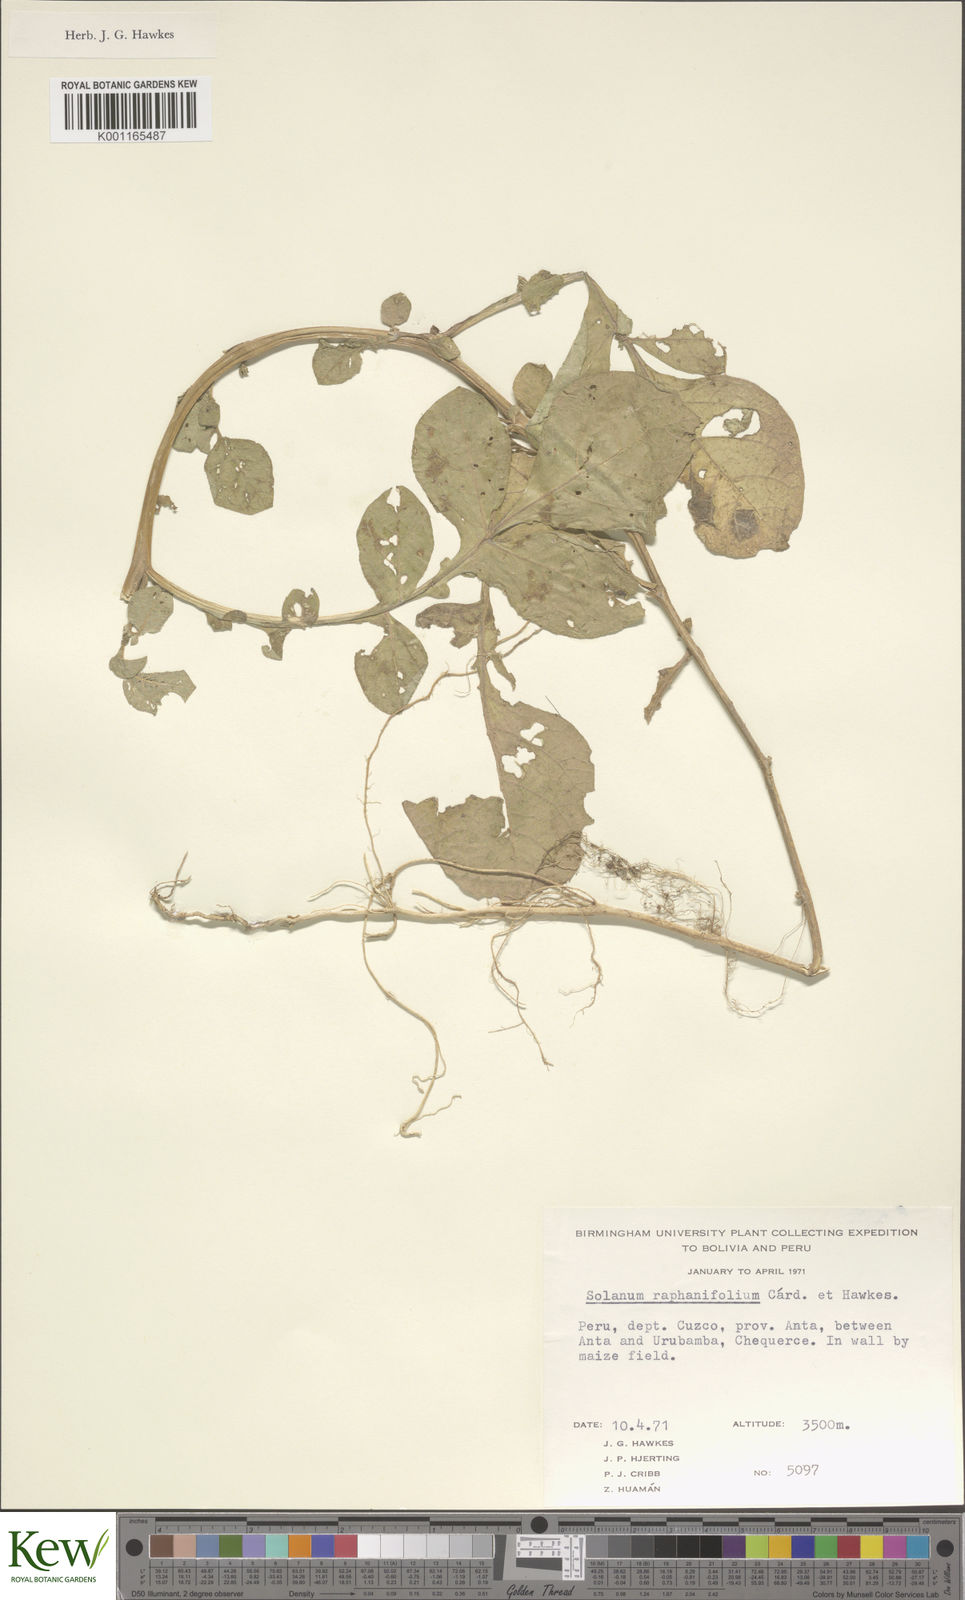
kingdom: Plantae
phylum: Tracheophyta
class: Magnoliopsida
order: Solanales
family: Solanaceae
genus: Solanum
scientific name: Solanum raphanifolium
